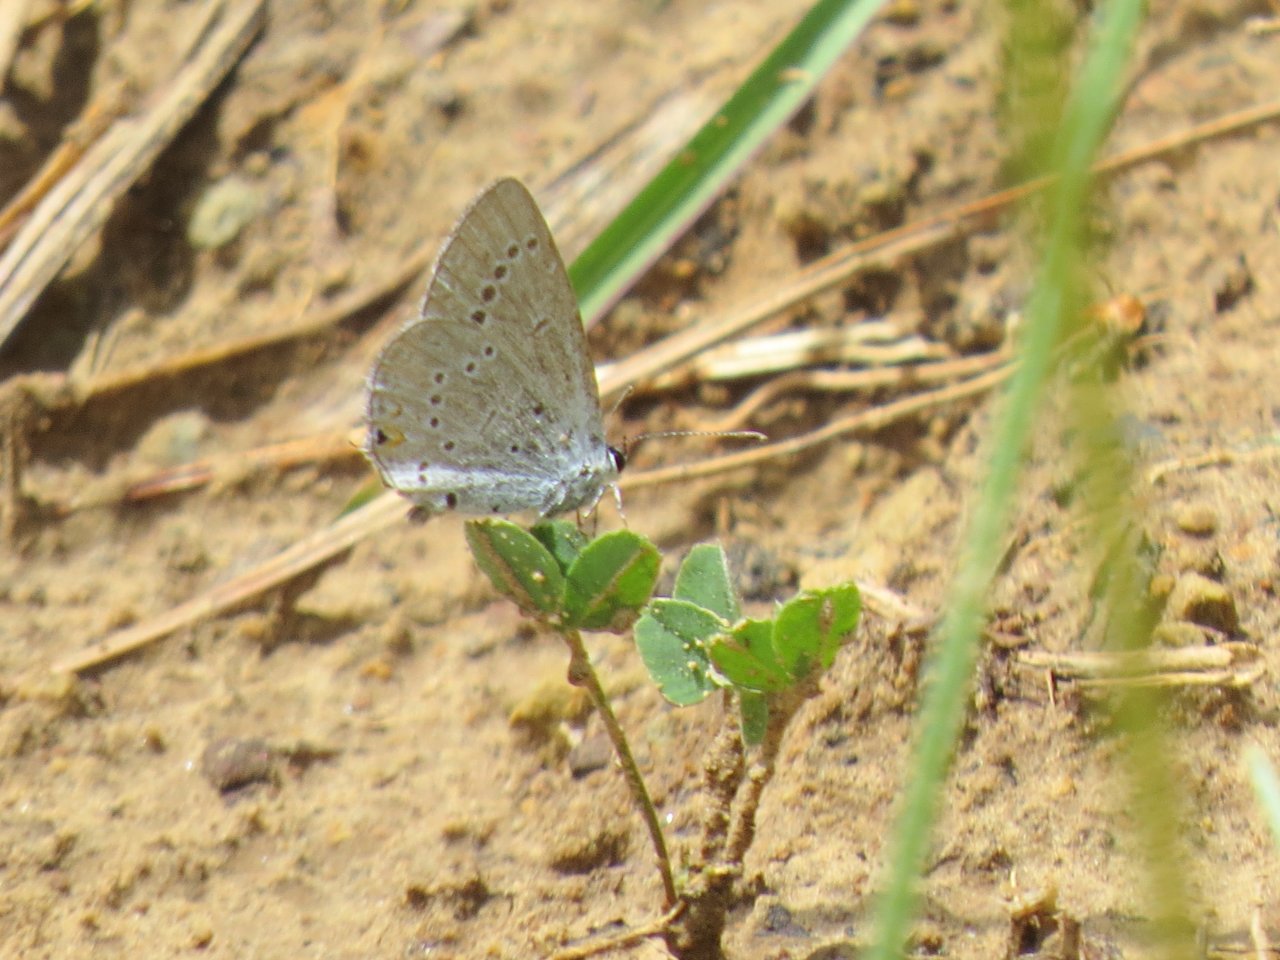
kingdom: Animalia
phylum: Arthropoda
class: Insecta
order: Lepidoptera
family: Lycaenidae
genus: Glaucopsyche
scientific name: Glaucopsyche lygdamus
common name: Silvery Blue
